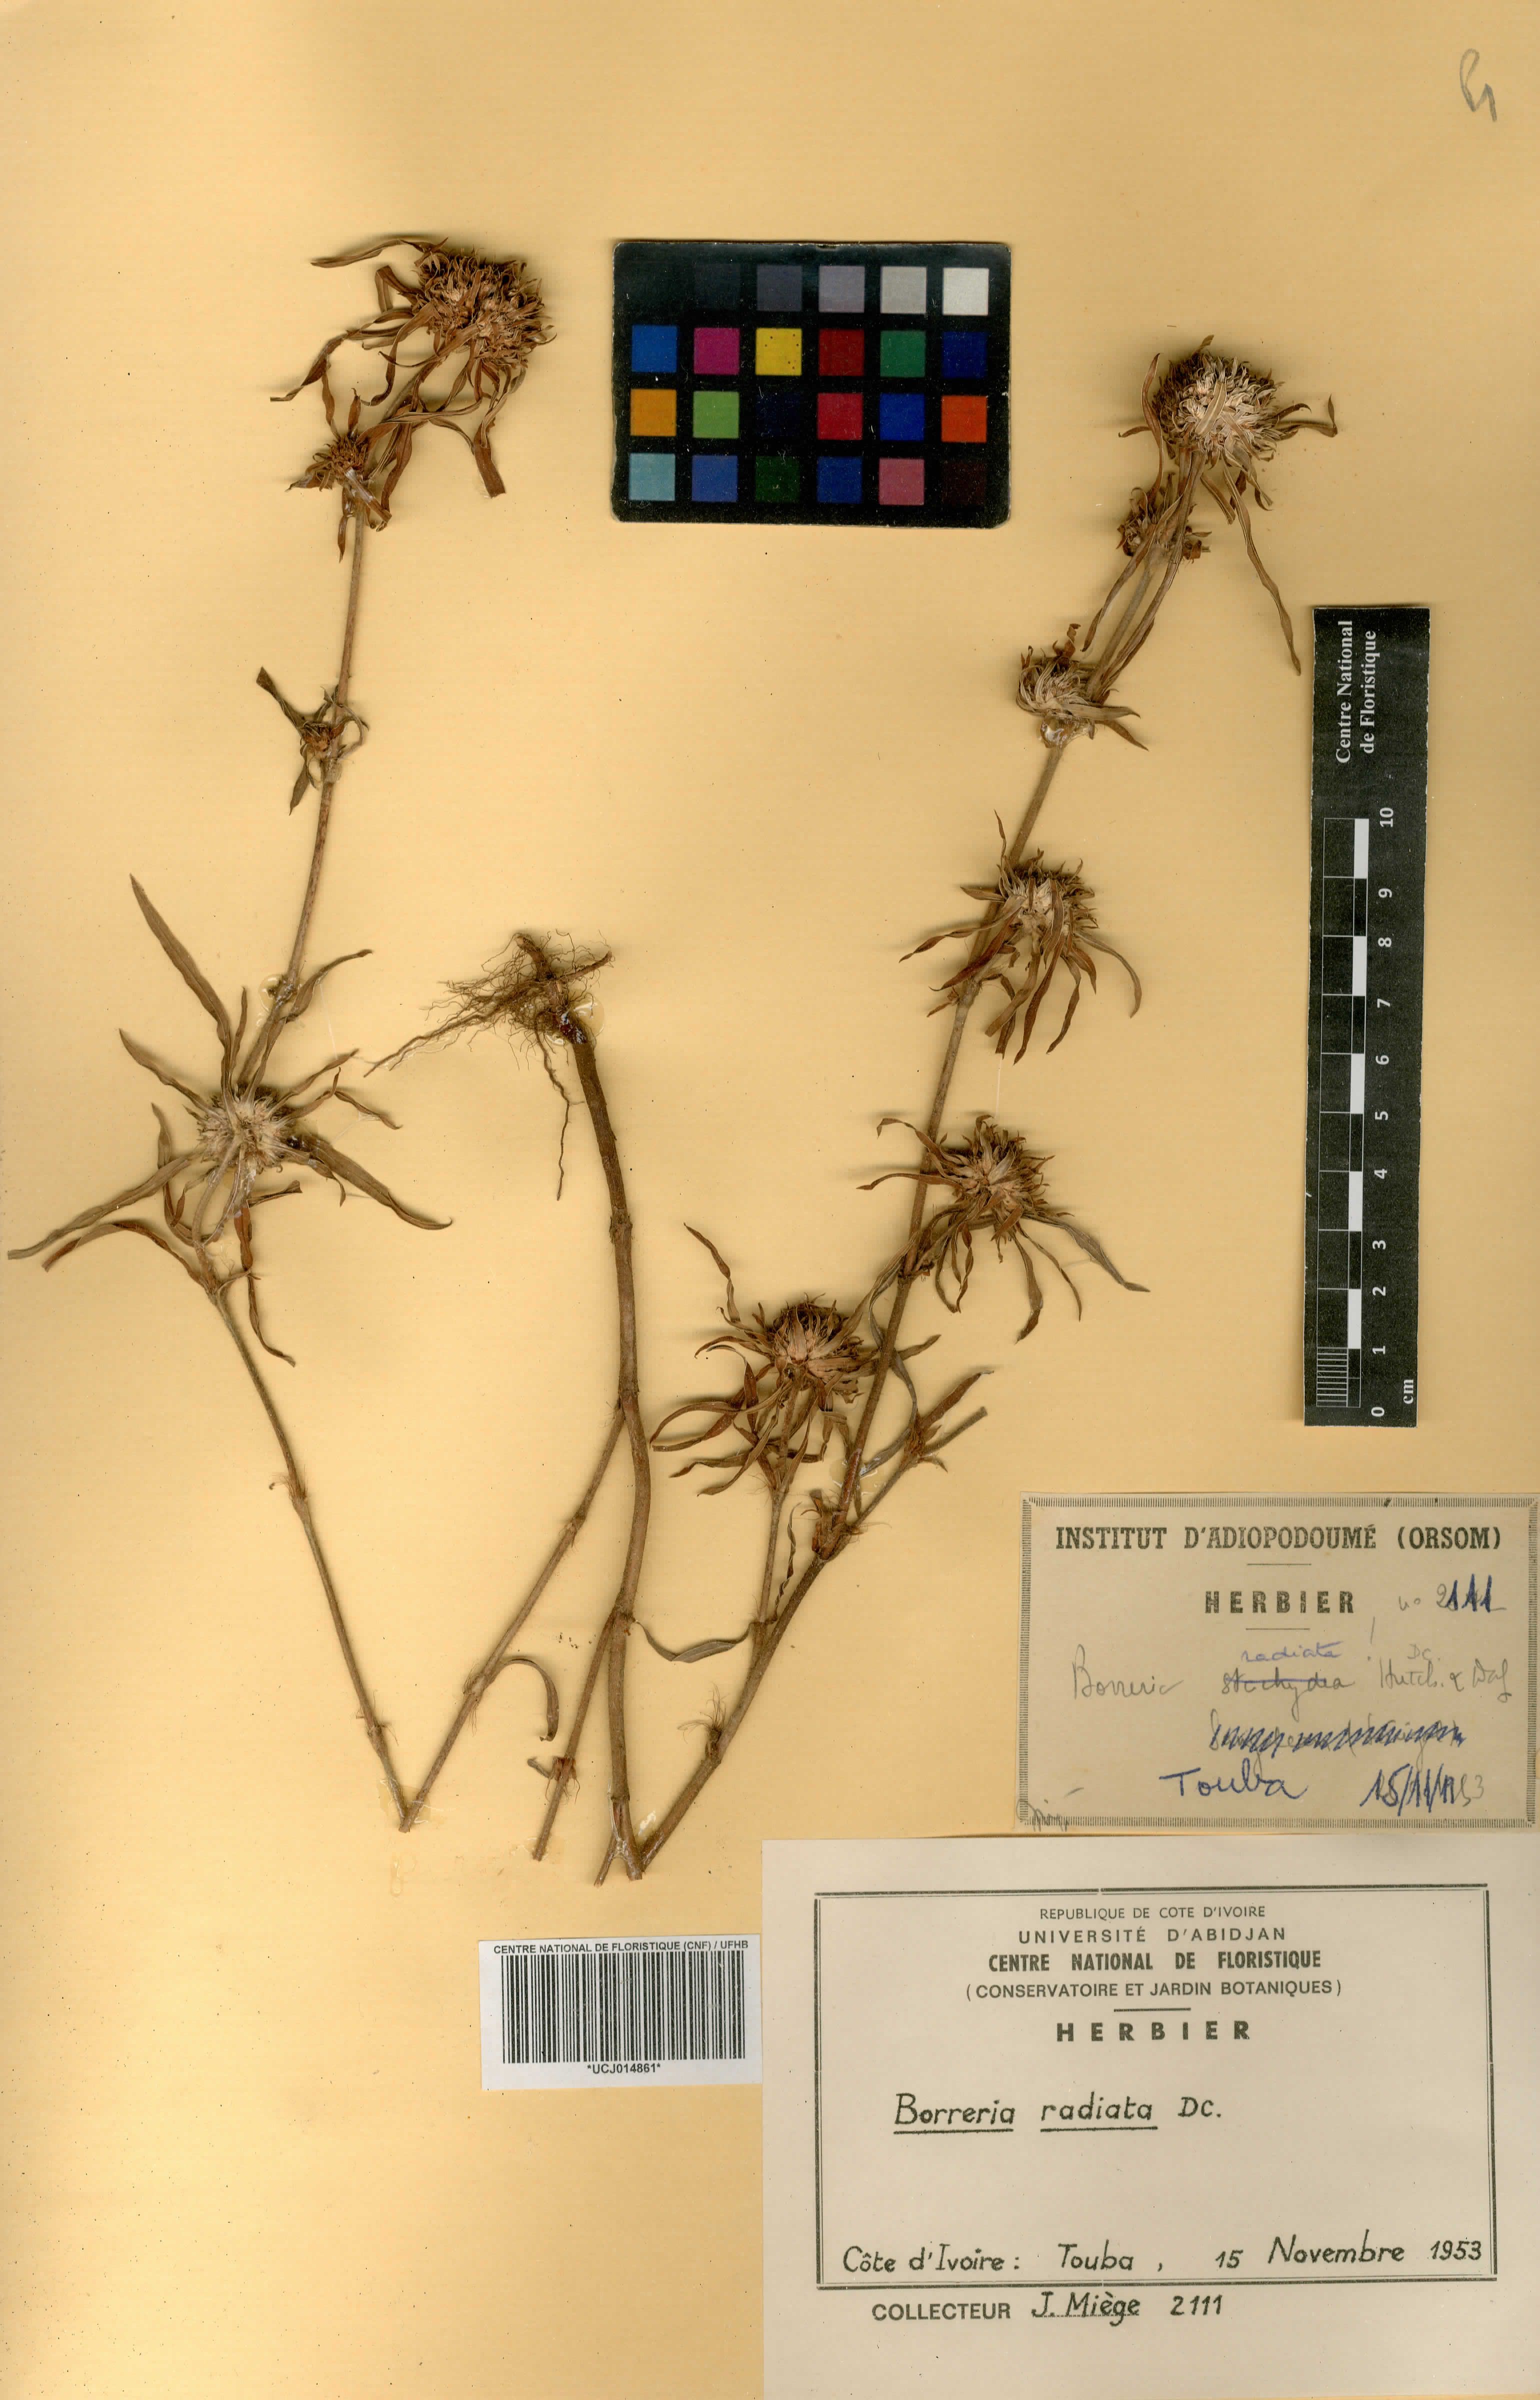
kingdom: Plantae
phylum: Tracheophyta
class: Magnoliopsida
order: Gentianales
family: Rubiaceae
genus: Spermacoce
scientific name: Spermacoce radiata
